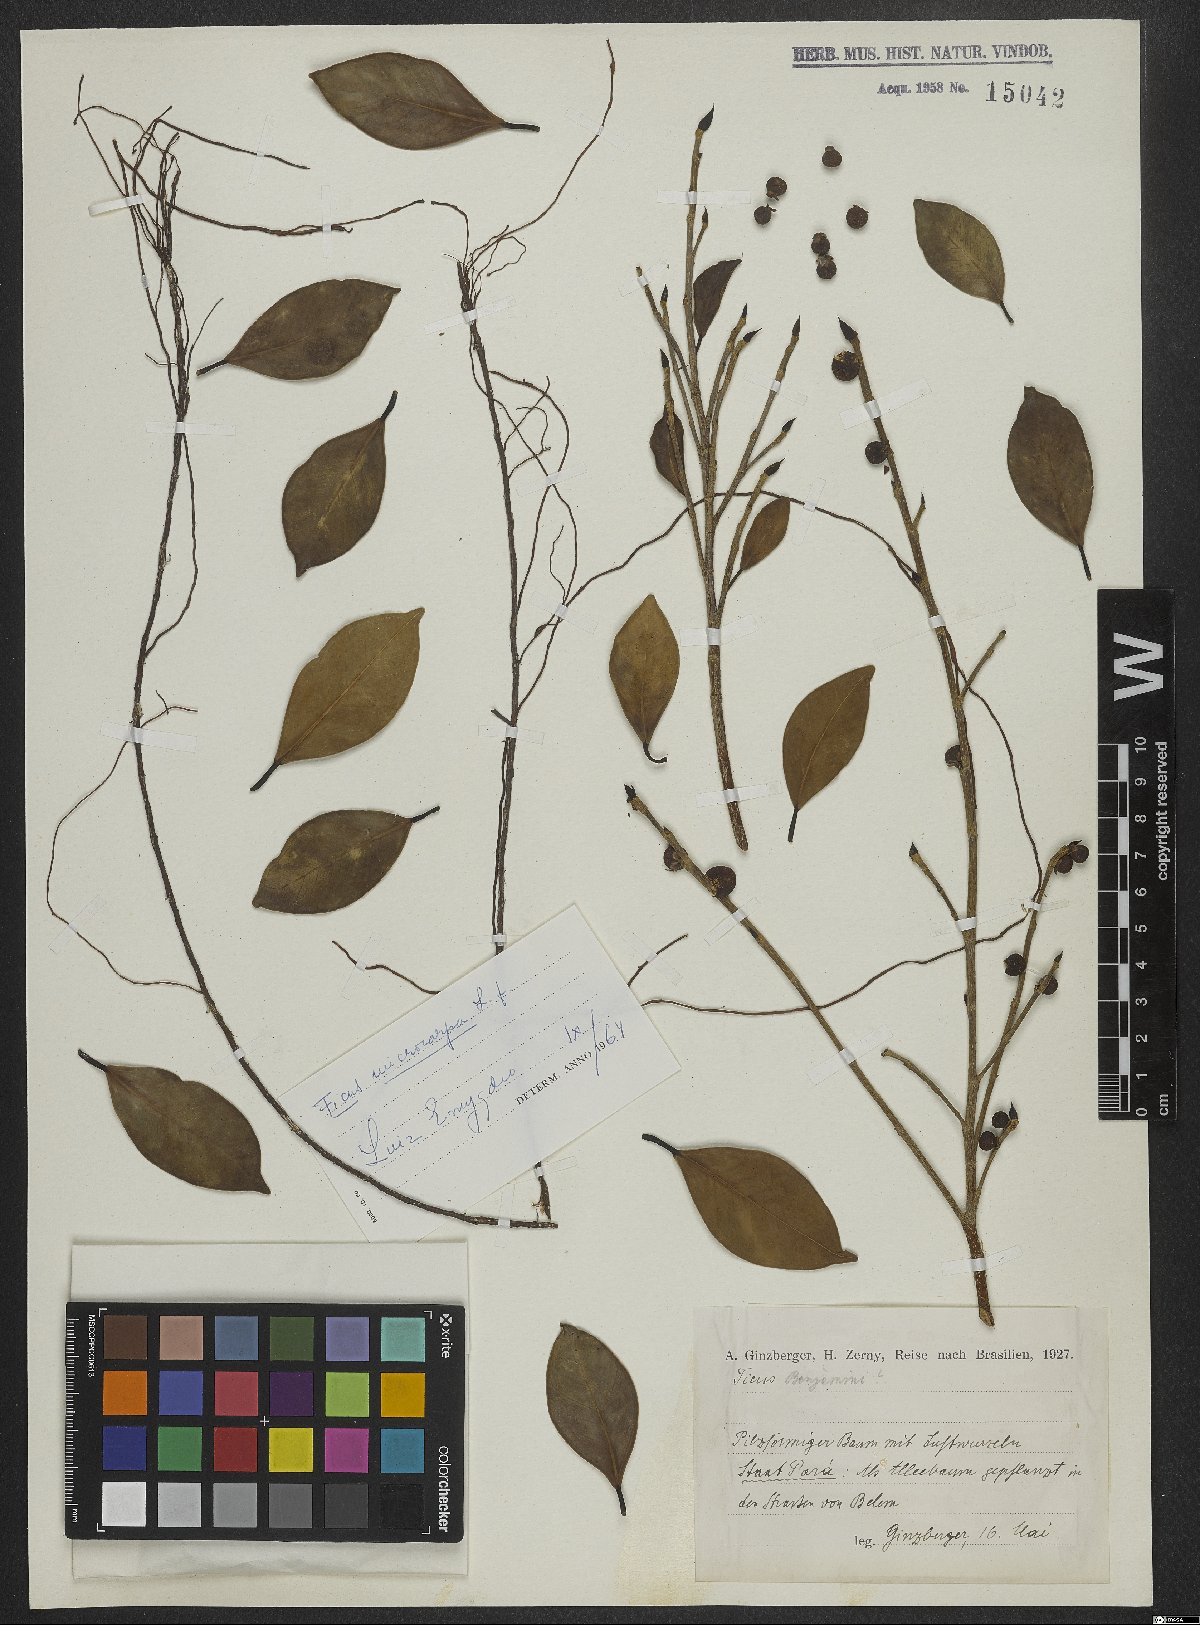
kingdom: Plantae
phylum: Tracheophyta
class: Magnoliopsida
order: Rosales
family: Moraceae
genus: Ficus
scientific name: Ficus
